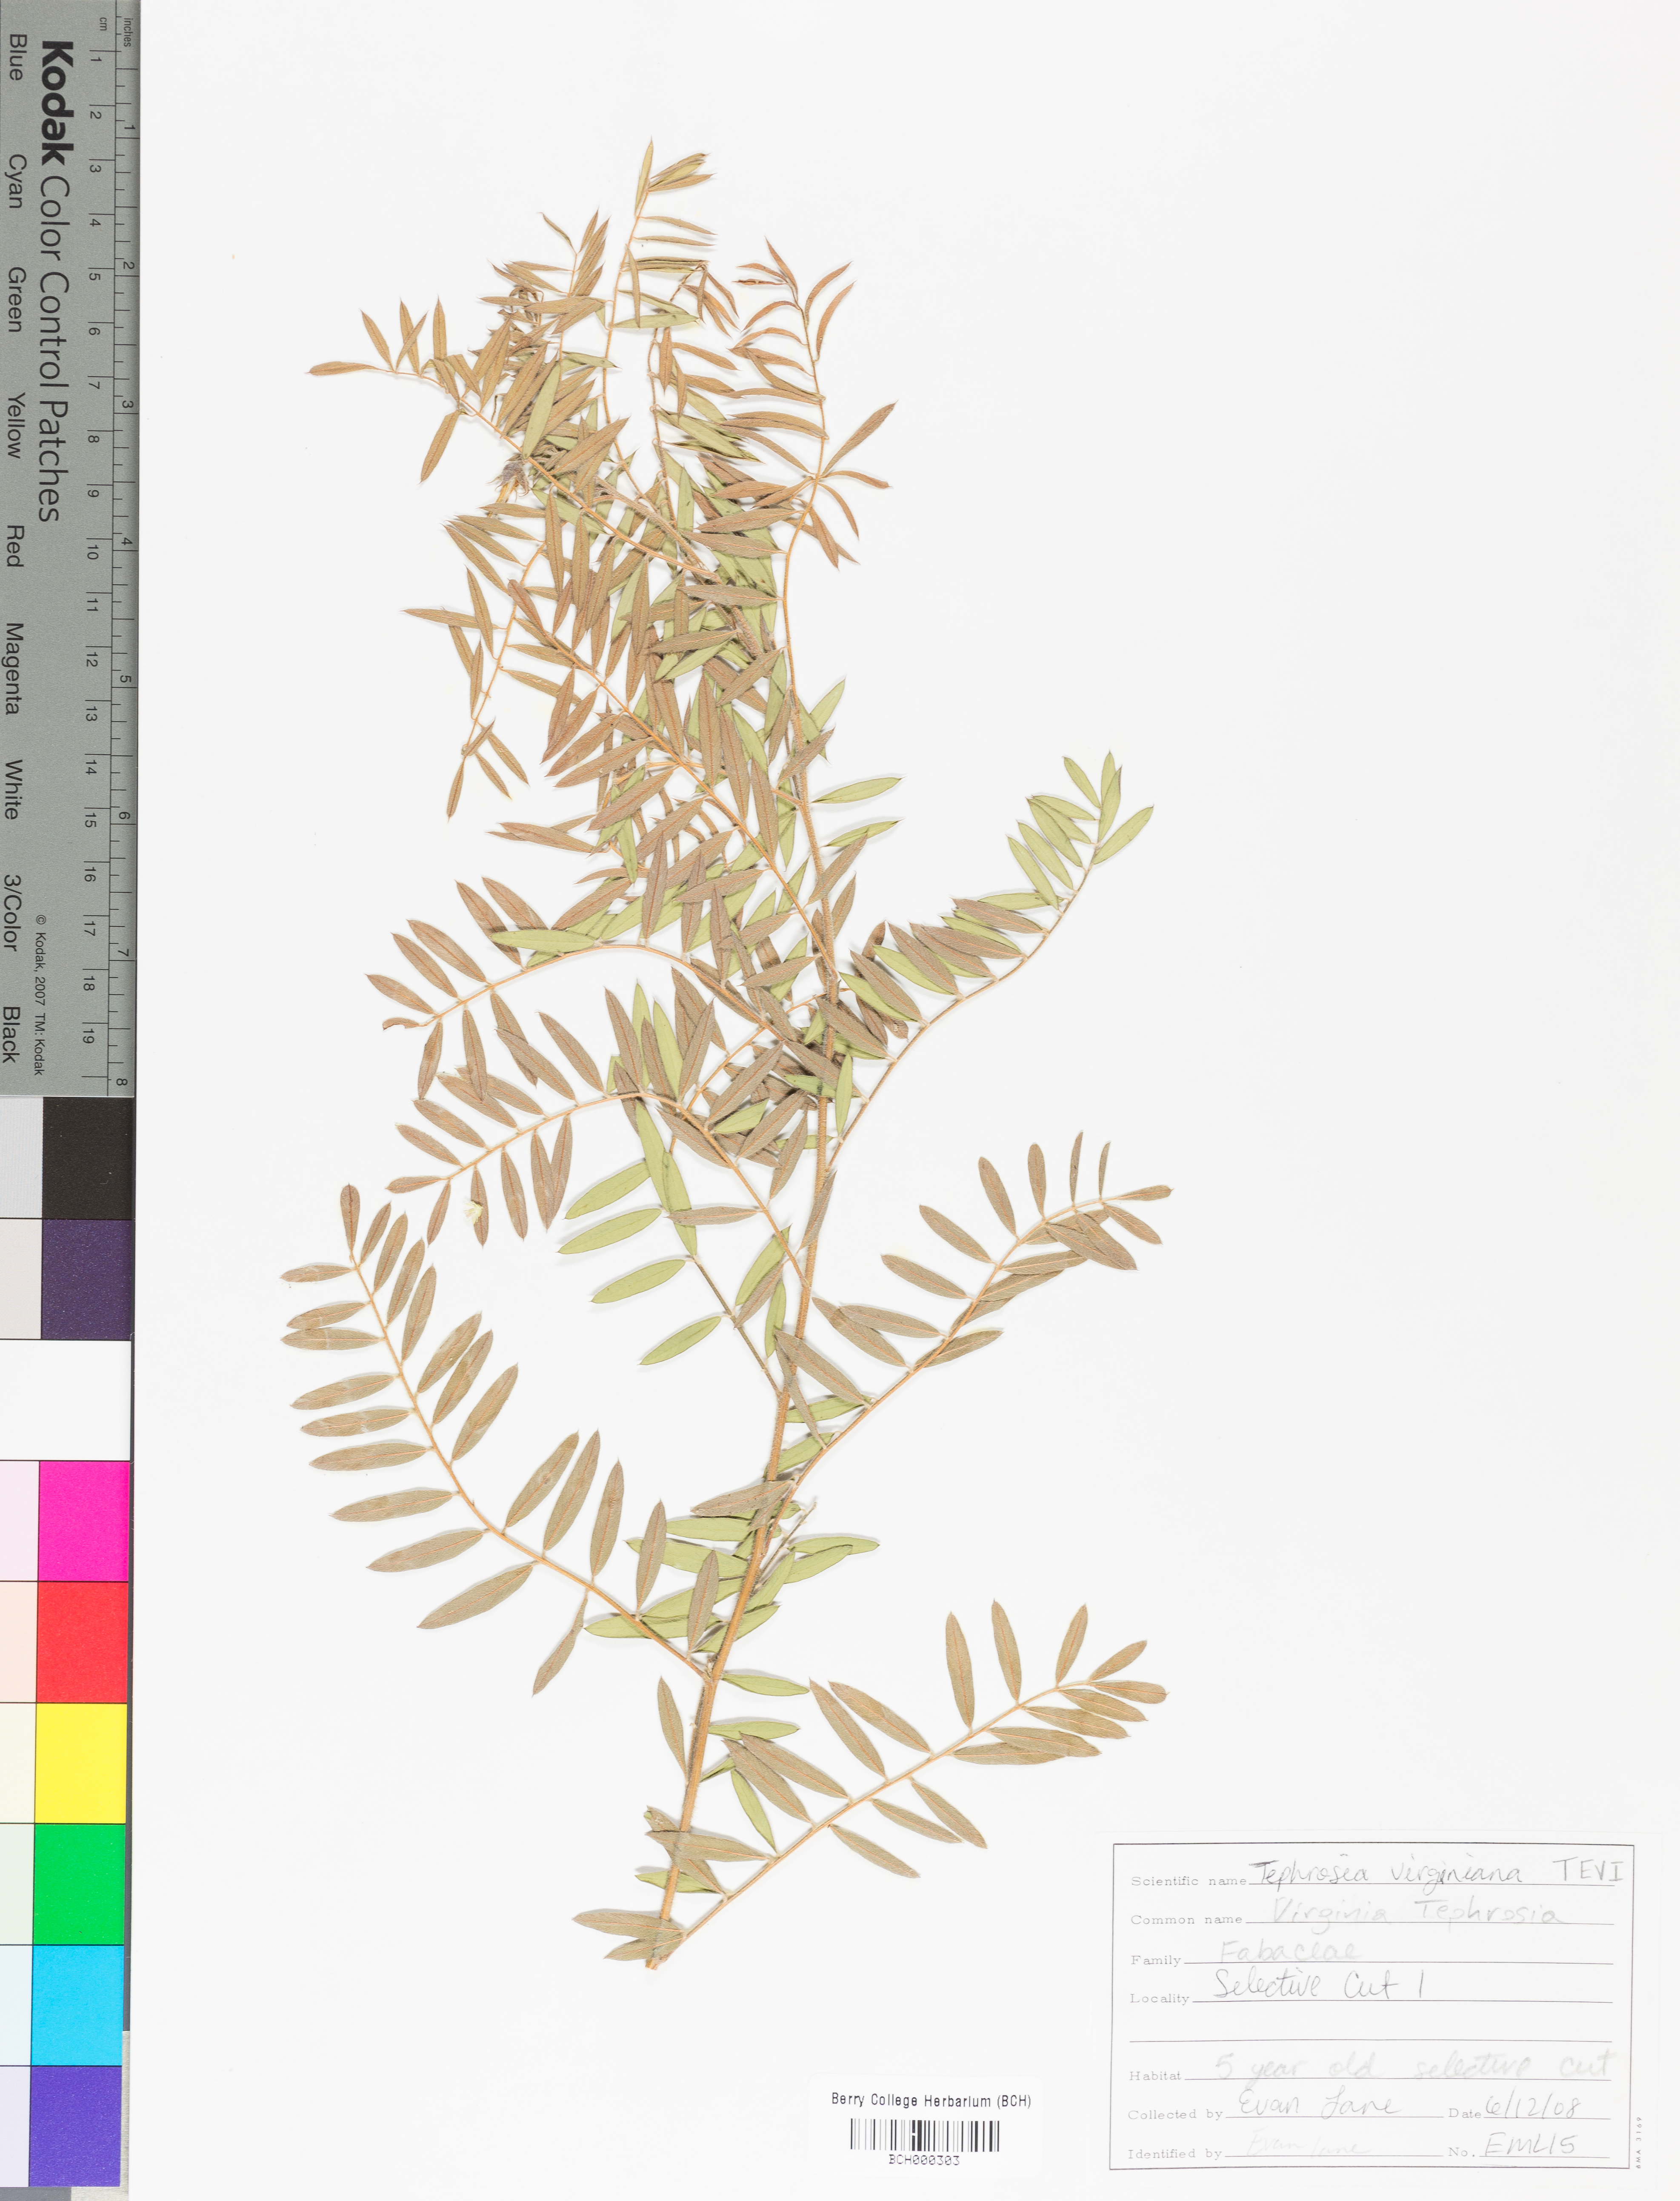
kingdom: Plantae
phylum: Tracheophyta
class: Magnoliopsida
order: Fabales
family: Fabaceae
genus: Tephrosia
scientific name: Tephrosia virginiana
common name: Rabbit-pea
